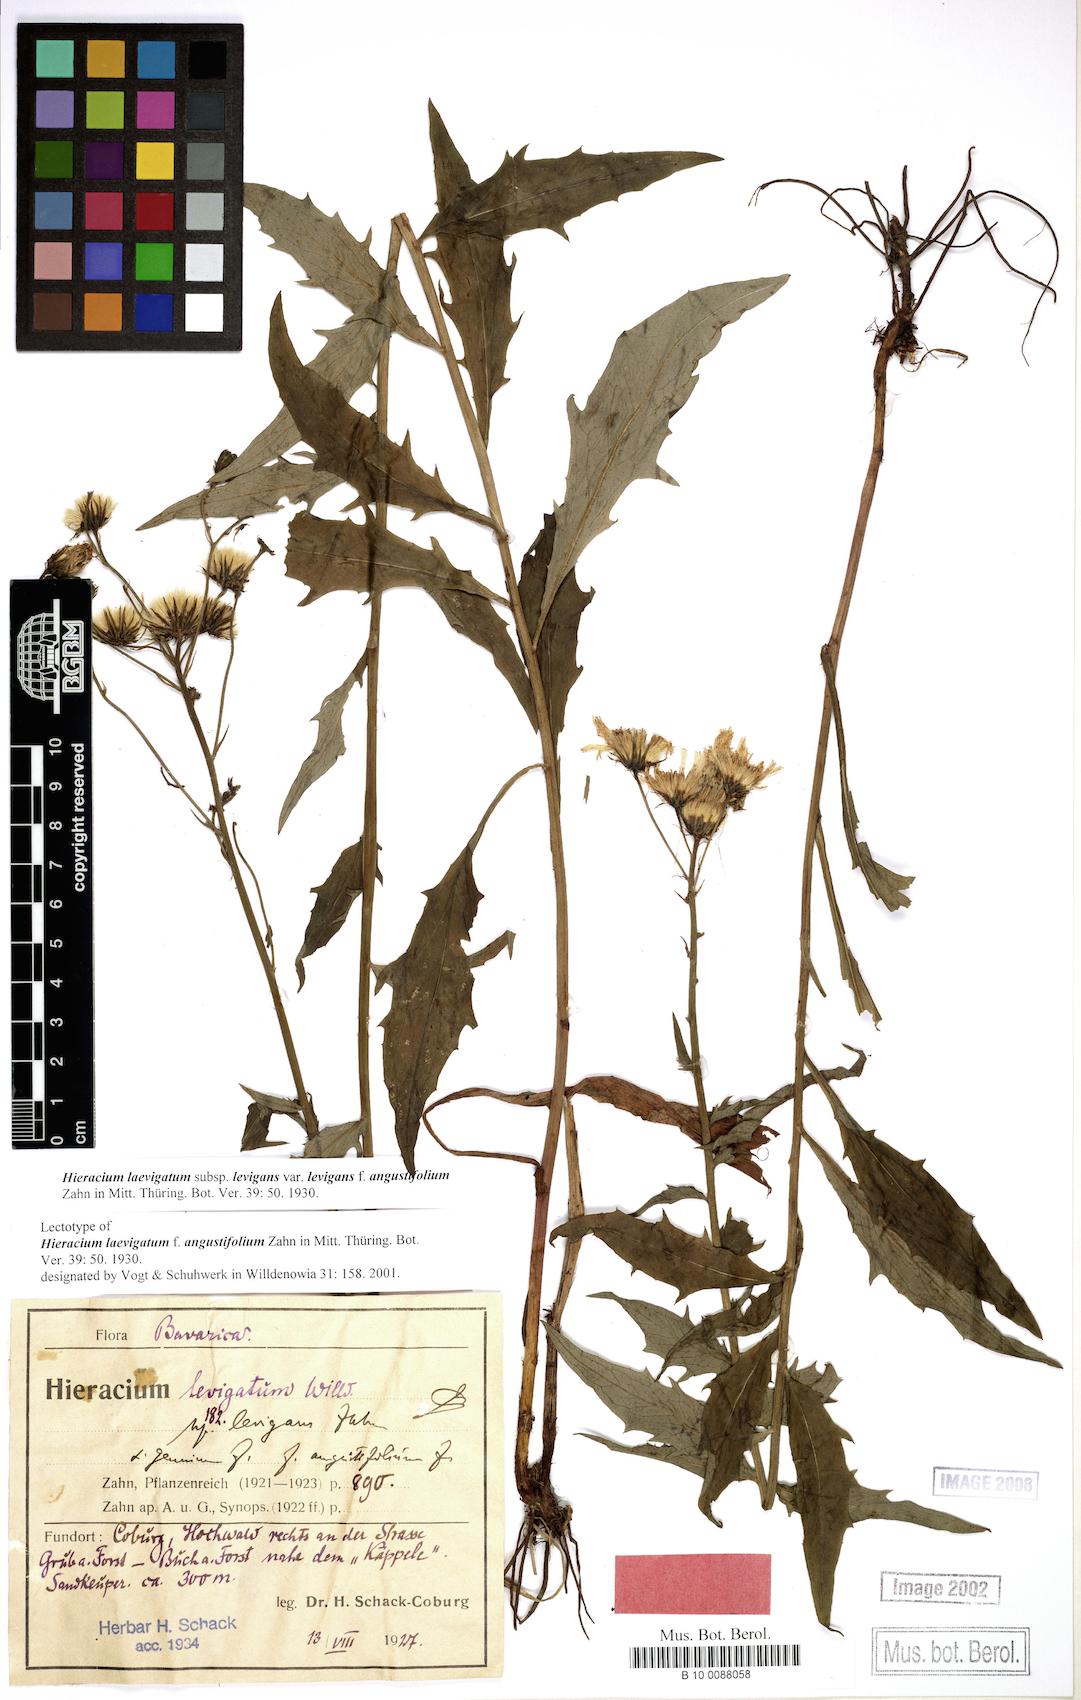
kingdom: Plantae
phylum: Tracheophyta
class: Magnoliopsida
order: Asterales
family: Asteraceae
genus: Hieracium
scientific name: Hieracium laevigatum
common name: Smooth hawkweed
